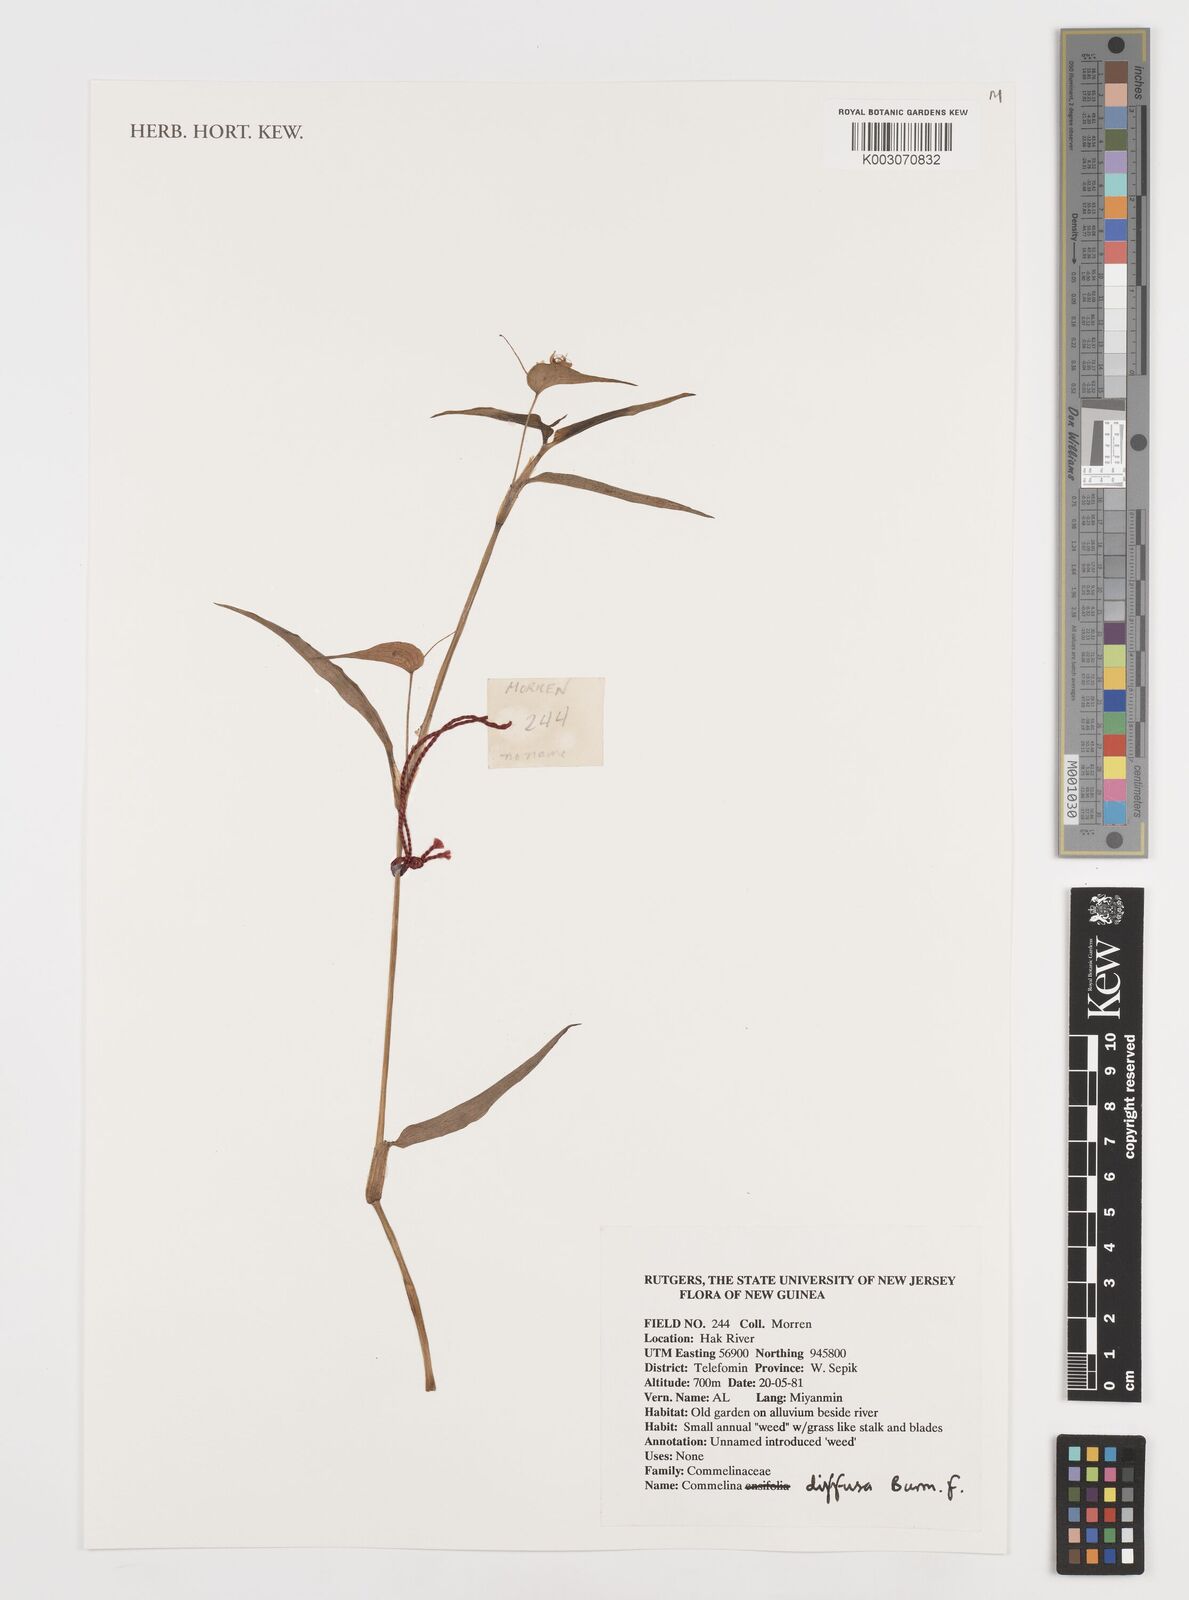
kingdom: Plantae
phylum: Tracheophyta
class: Liliopsida
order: Commelinales
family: Commelinaceae
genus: Commelina
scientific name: Commelina diffusa
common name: Climbing dayflower
